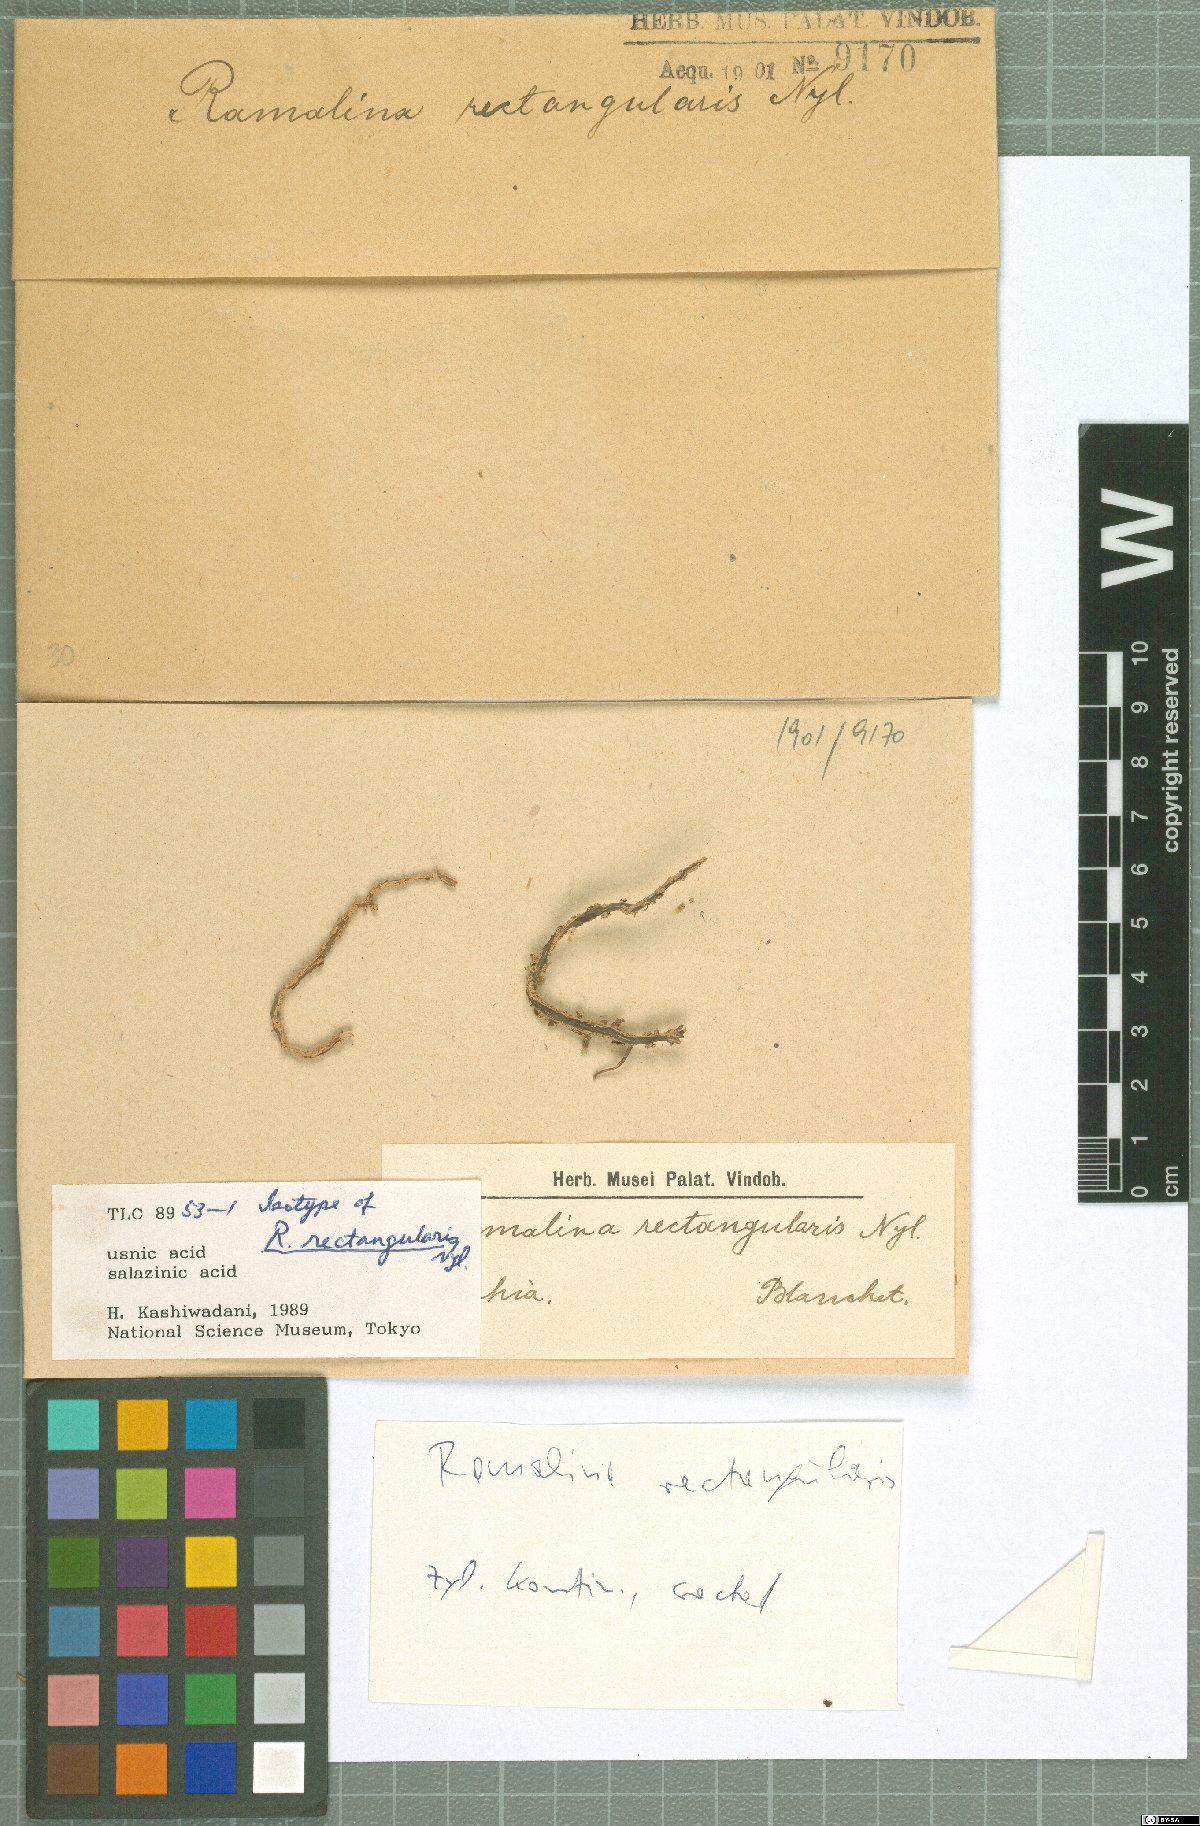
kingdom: Fungi
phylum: Ascomycota
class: Lecanoromycetes
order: Lecanorales
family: Ramalinaceae
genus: Ramalina
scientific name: Ramalina rectangularis
